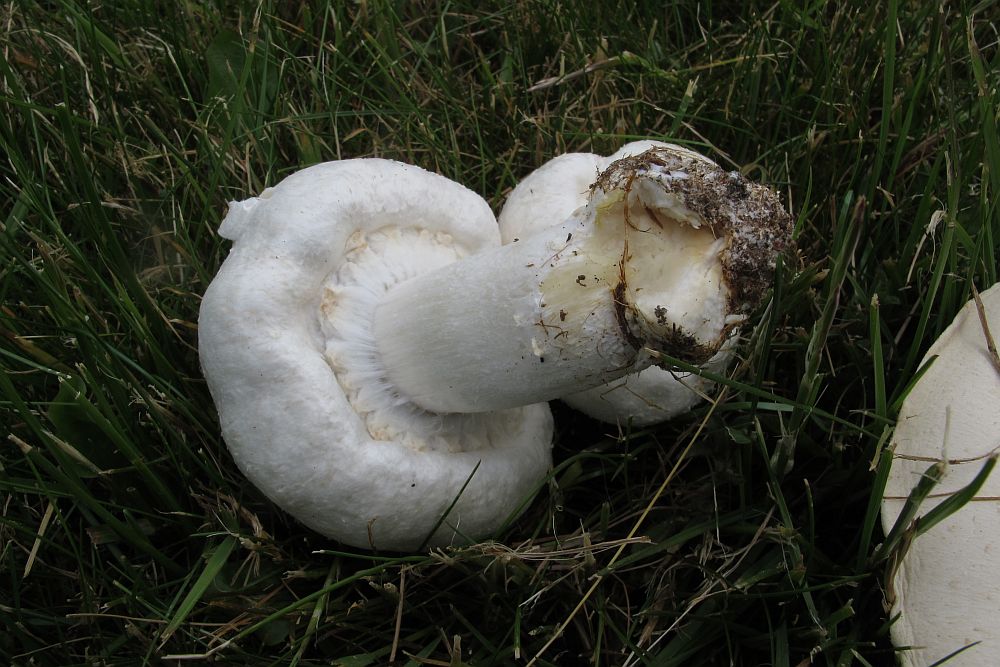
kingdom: Fungi
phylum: Basidiomycota
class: Agaricomycetes
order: Agaricales
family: Agaricaceae
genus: Agaricus
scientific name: Agaricus arvensis
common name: ager-champignon
